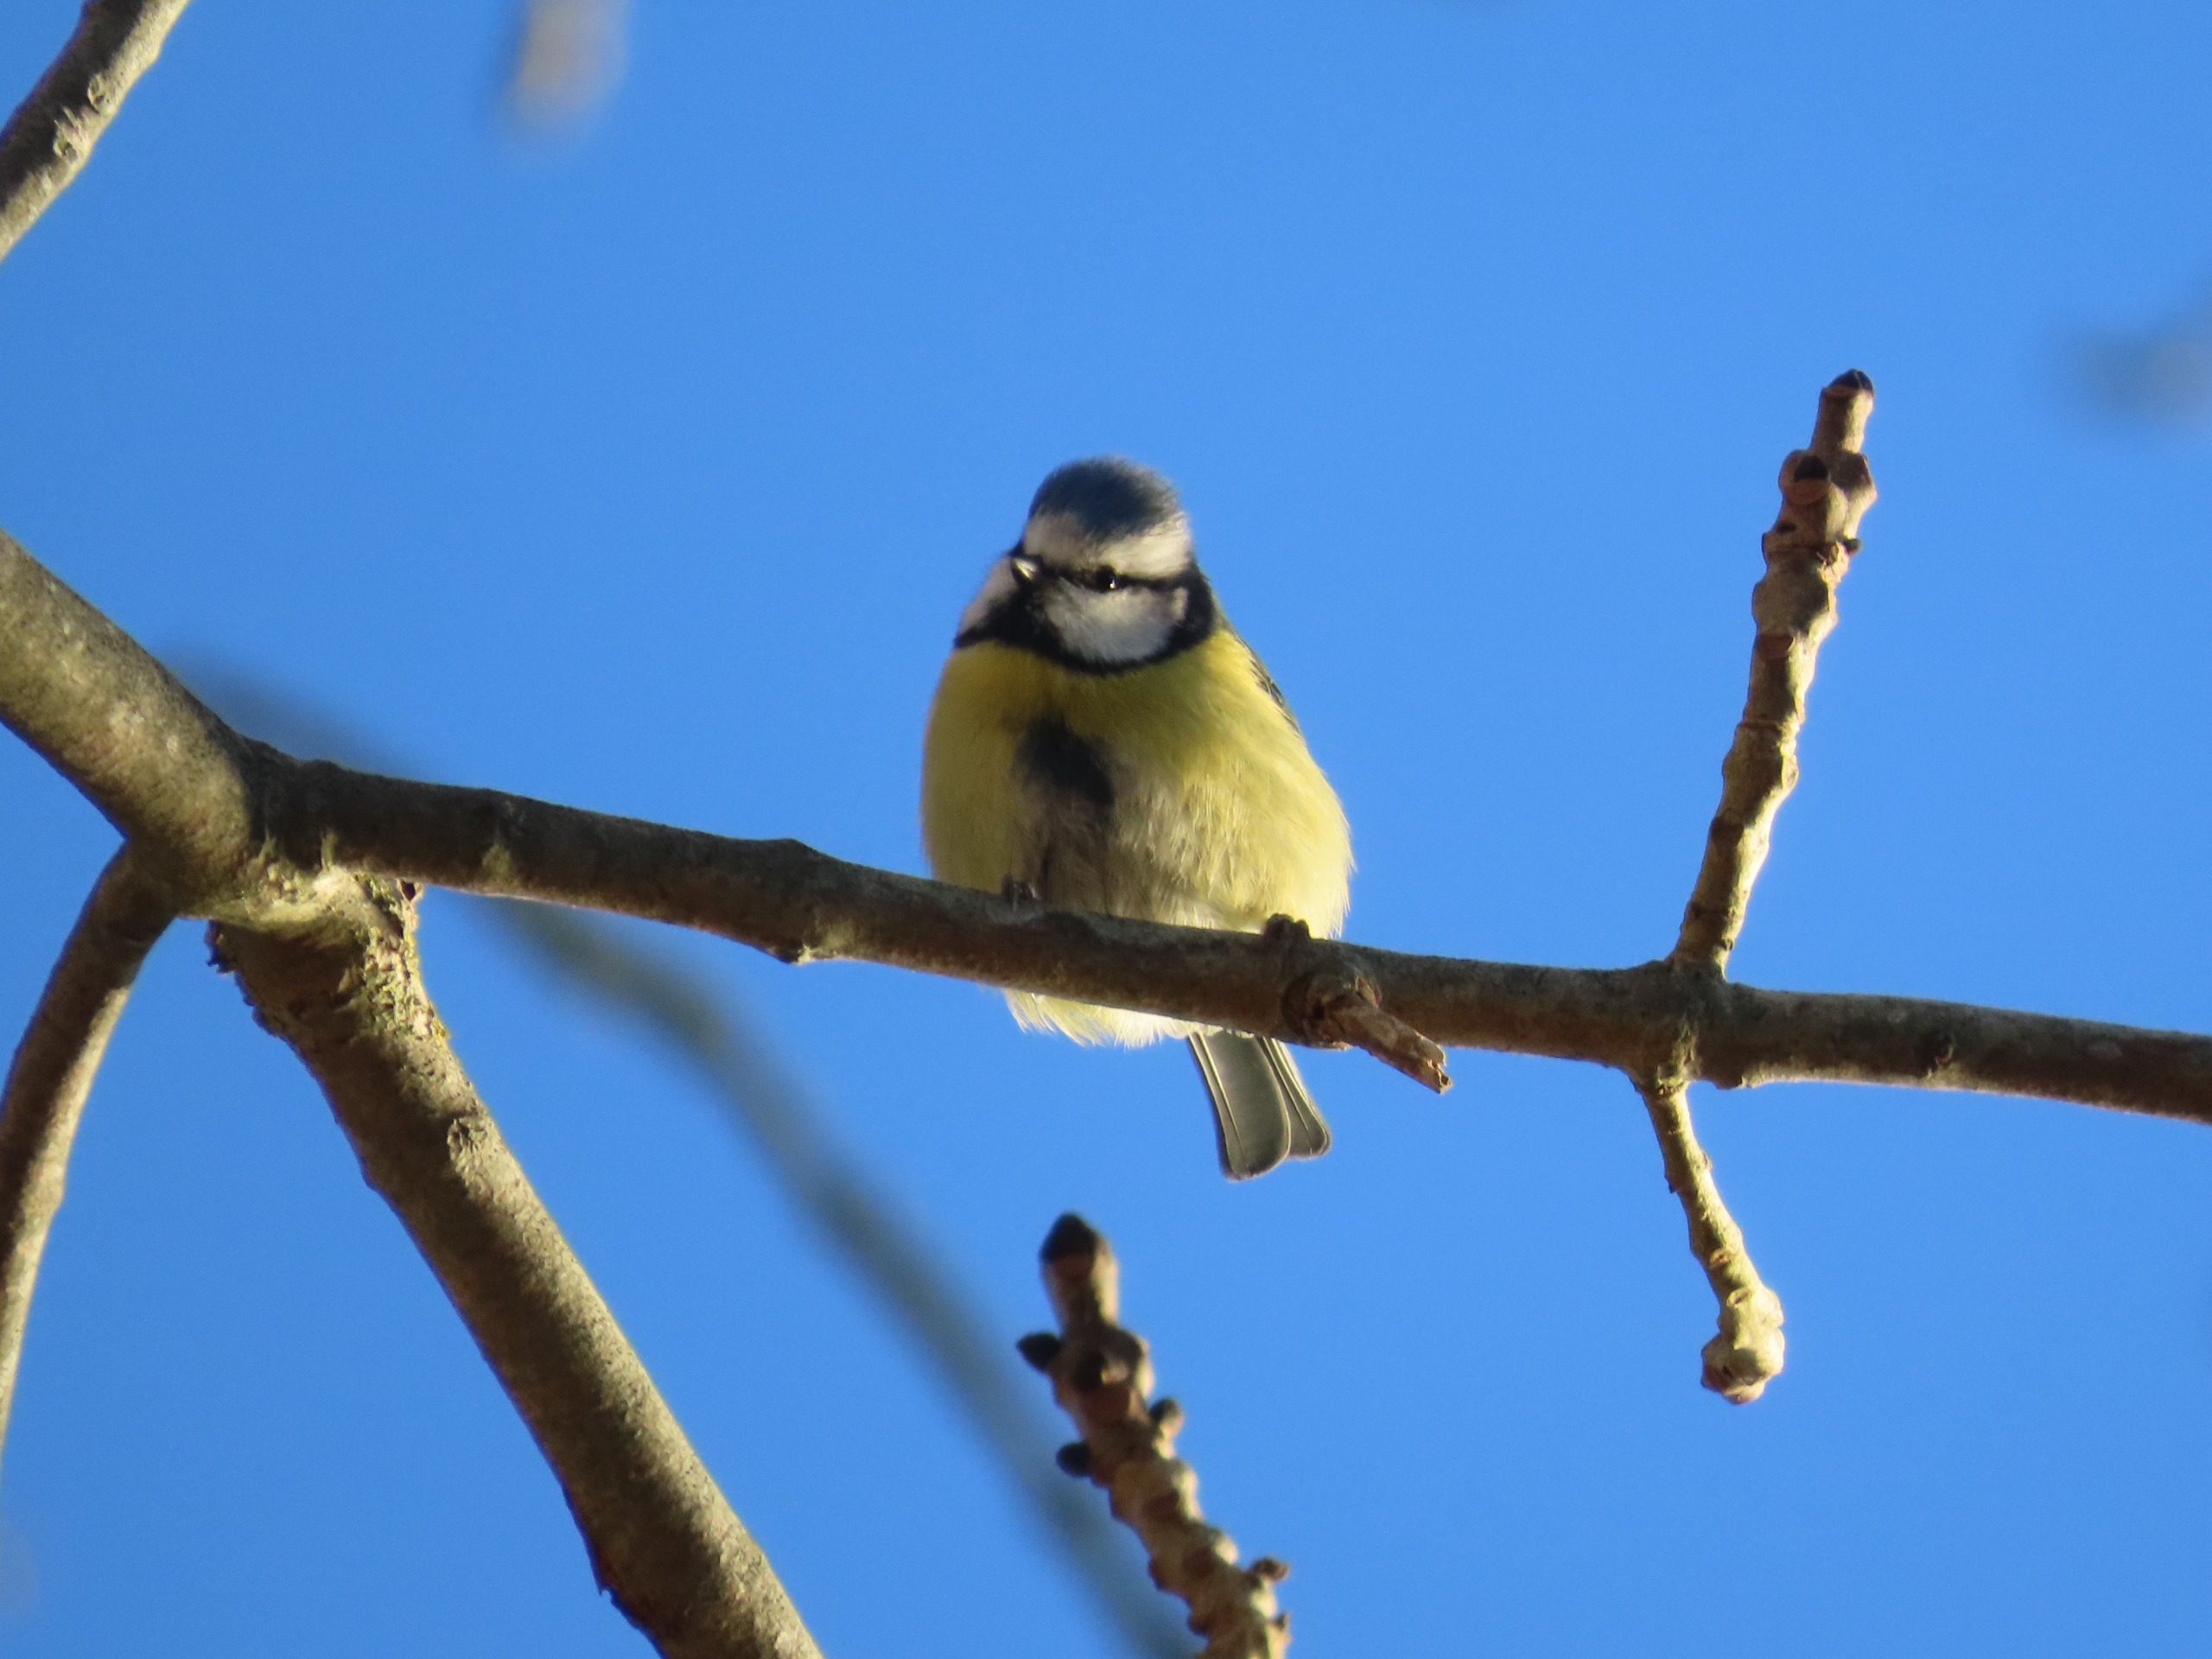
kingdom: Animalia
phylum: Chordata
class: Aves
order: Passeriformes
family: Paridae
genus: Cyanistes
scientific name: Cyanistes caeruleus
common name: Blåmejse
